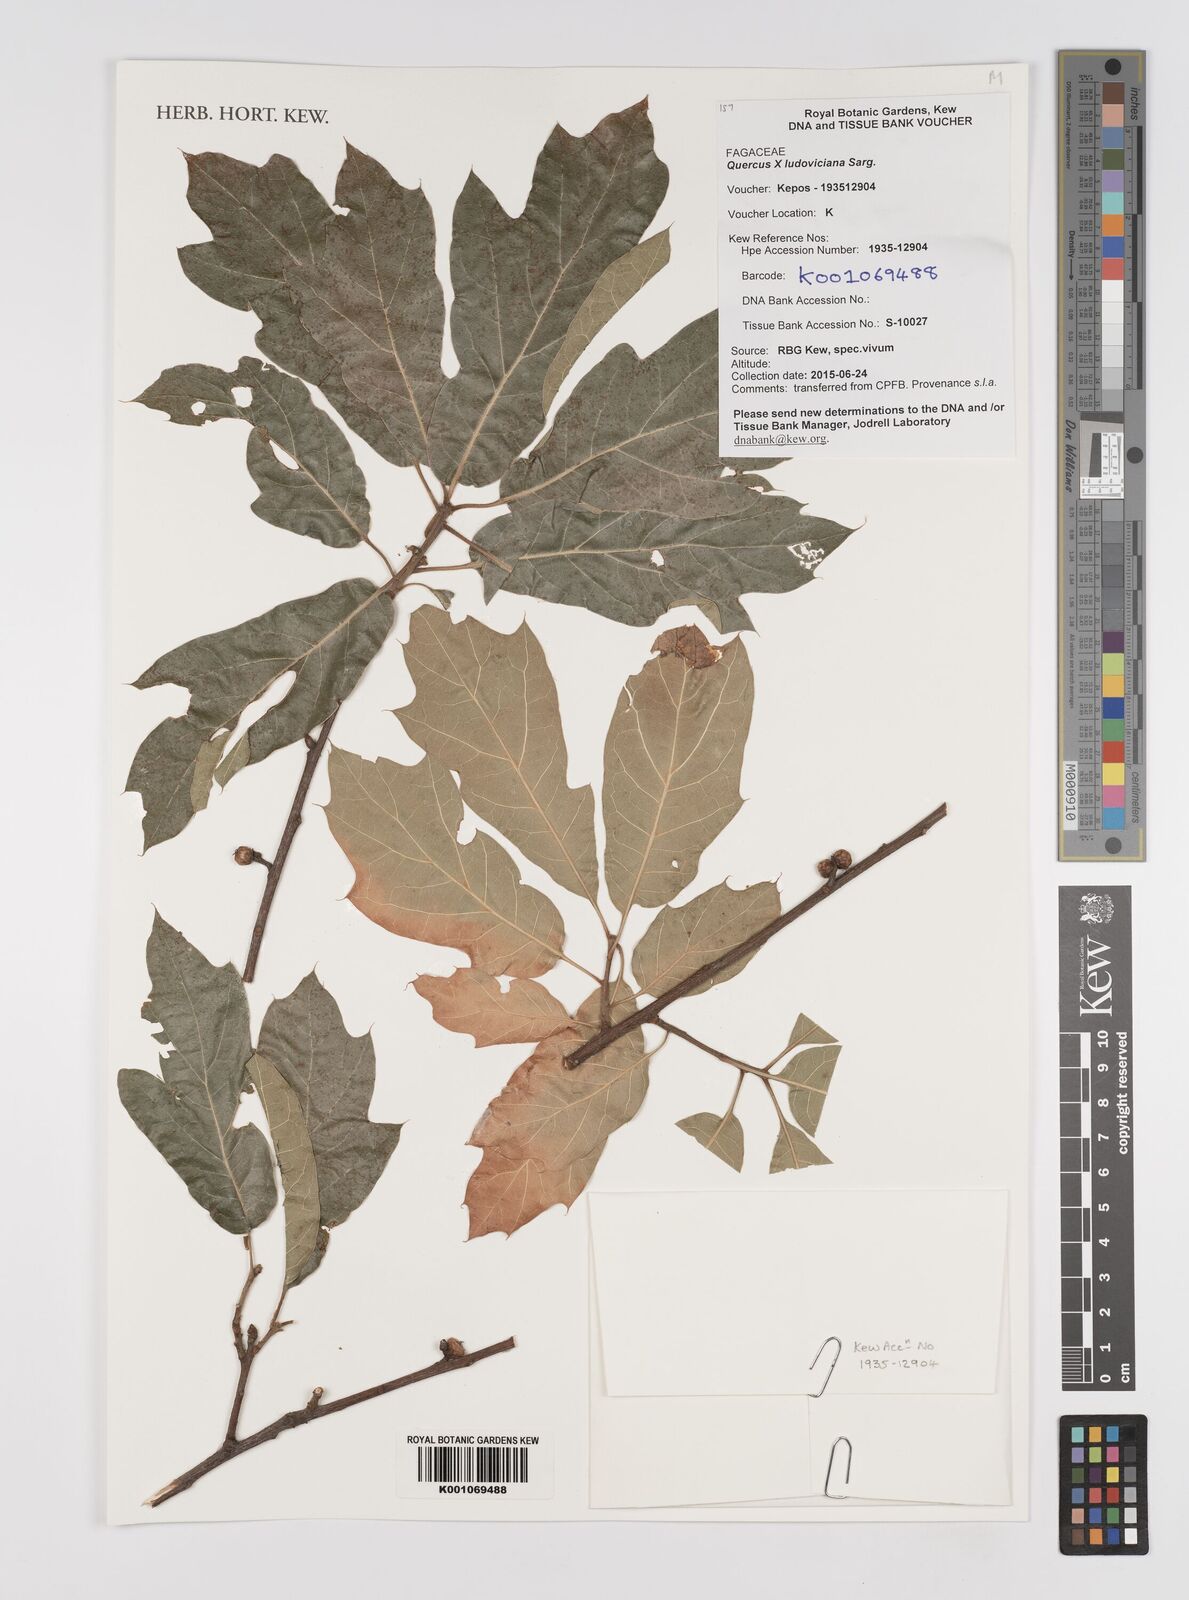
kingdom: Plantae
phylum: Tracheophyta
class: Magnoliopsida
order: Fagales
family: Fagaceae
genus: Quercus
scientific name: Quercus ludoviciana
